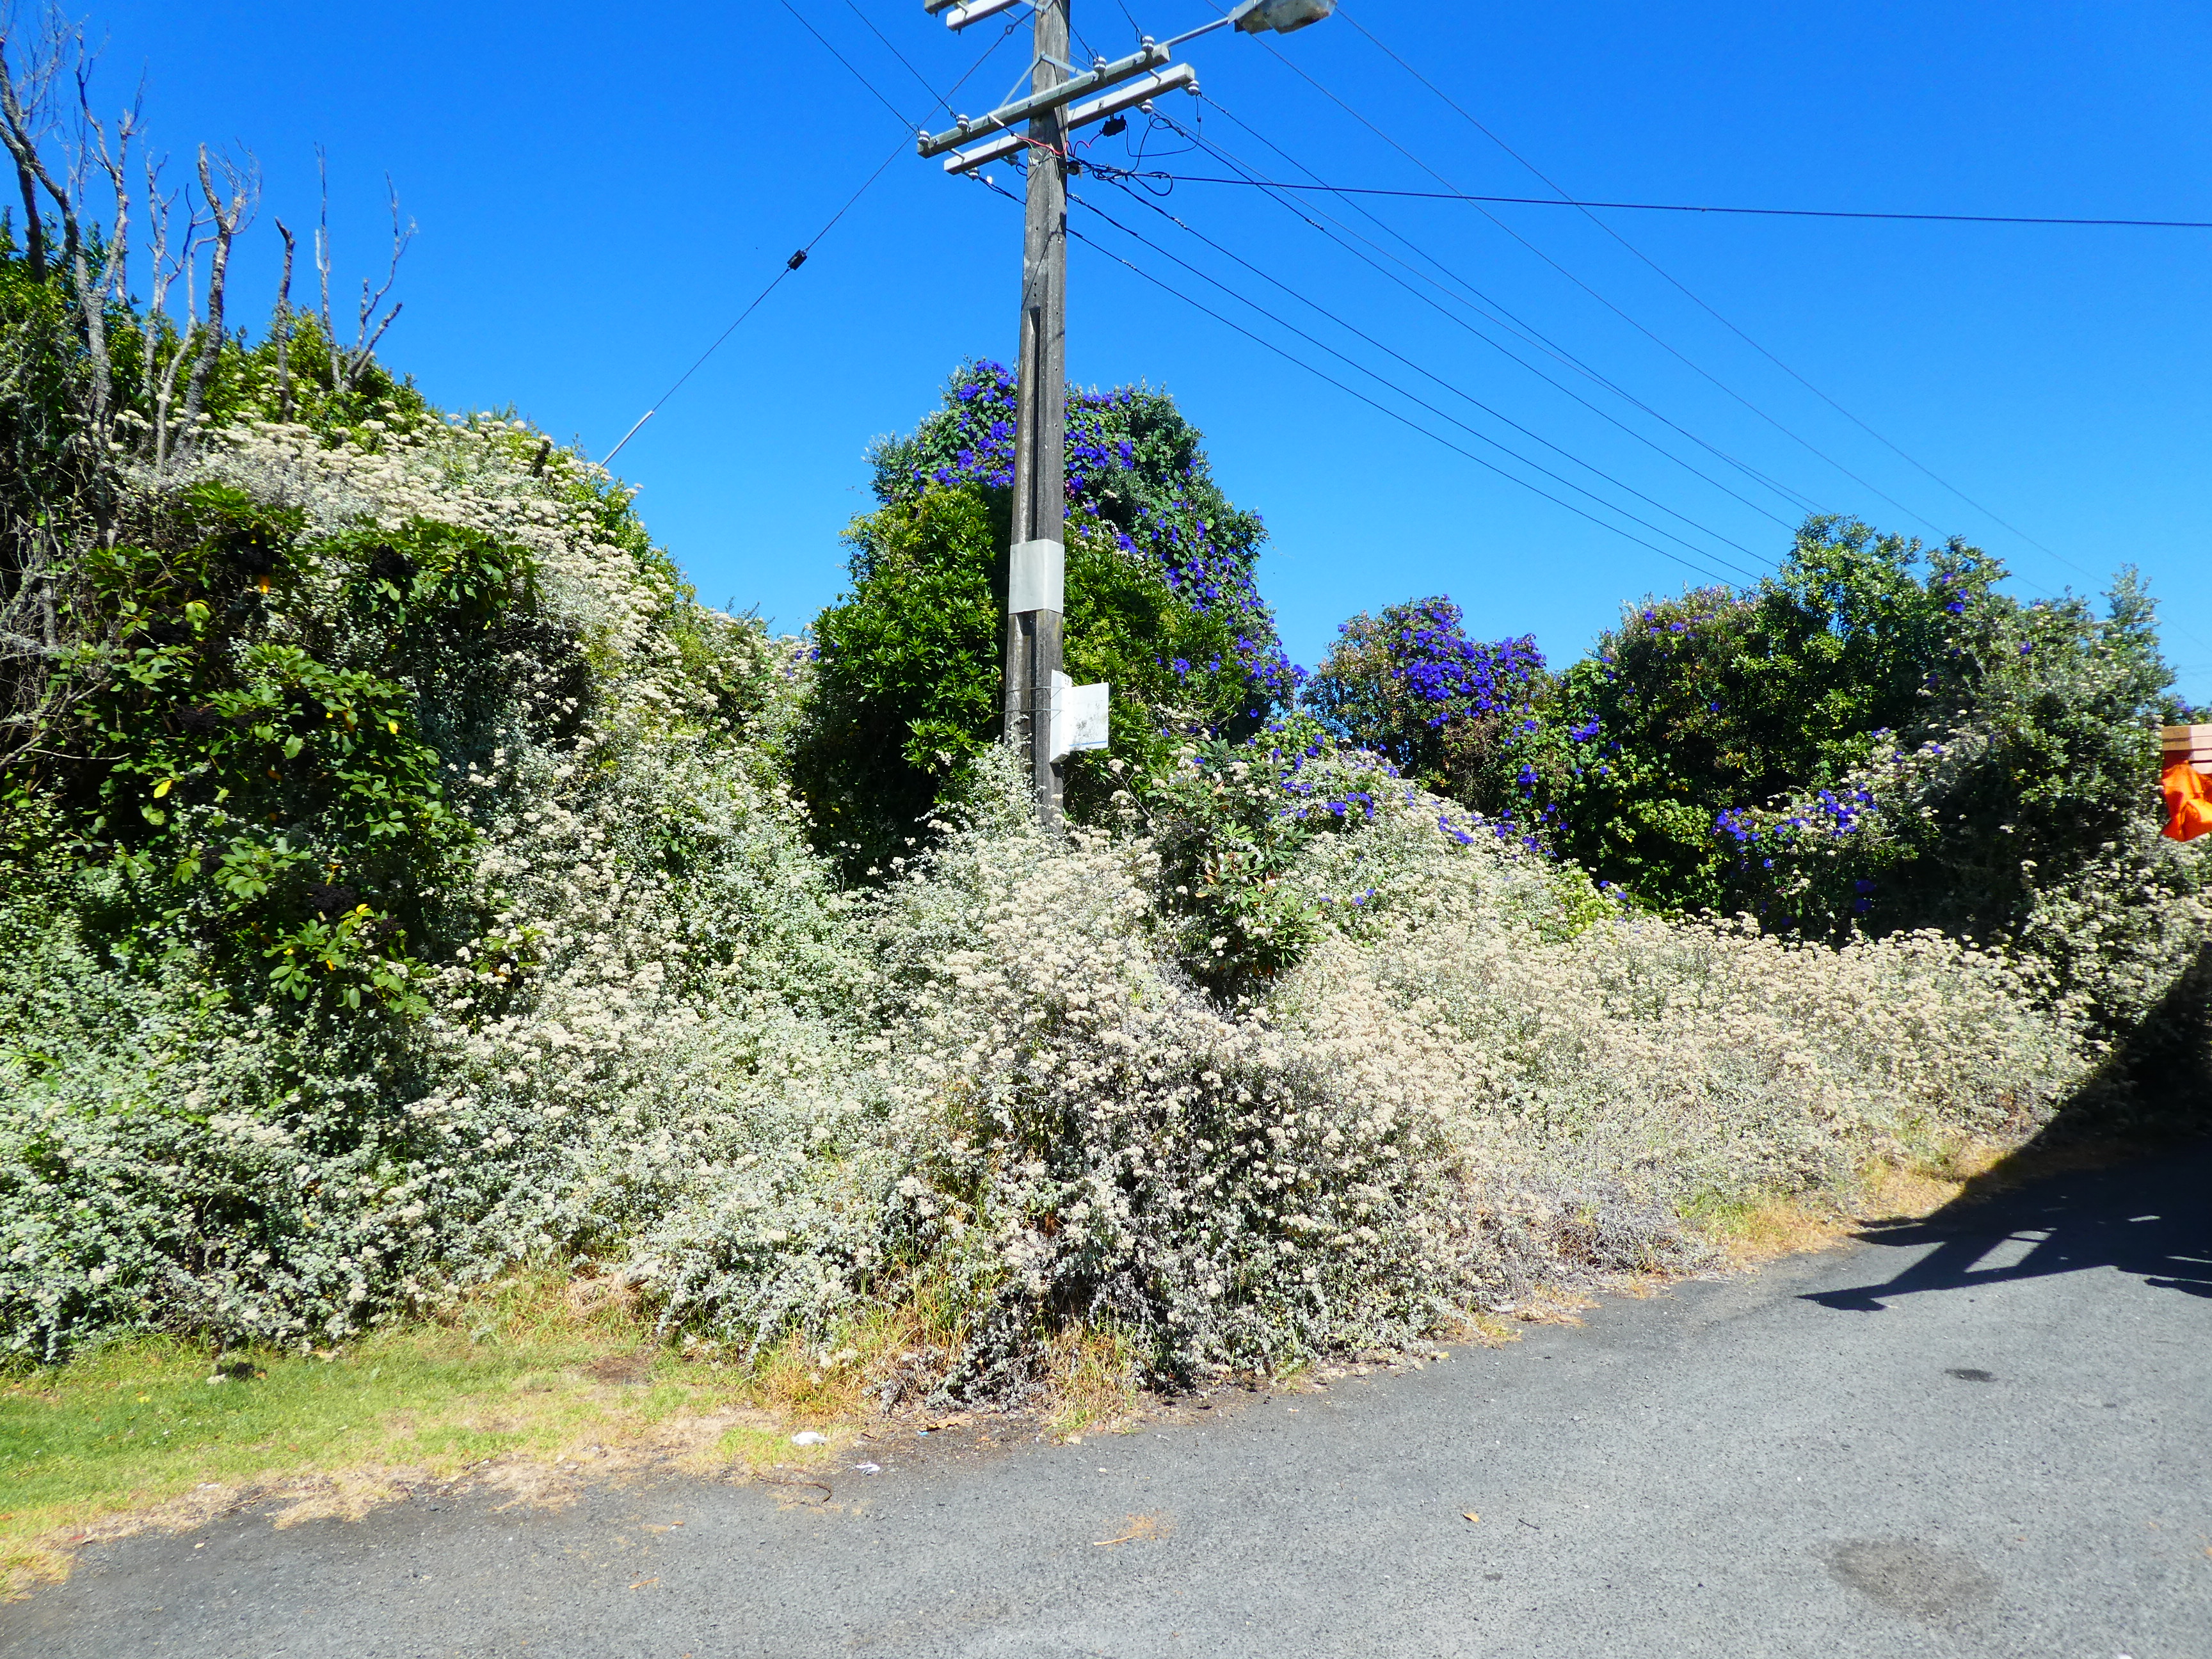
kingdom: Plantae
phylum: Tracheophyta
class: Magnoliopsida
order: Asterales
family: Asteraceae
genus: Helichrysum
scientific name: Helichrysum petiolare
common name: Licorice-plant
